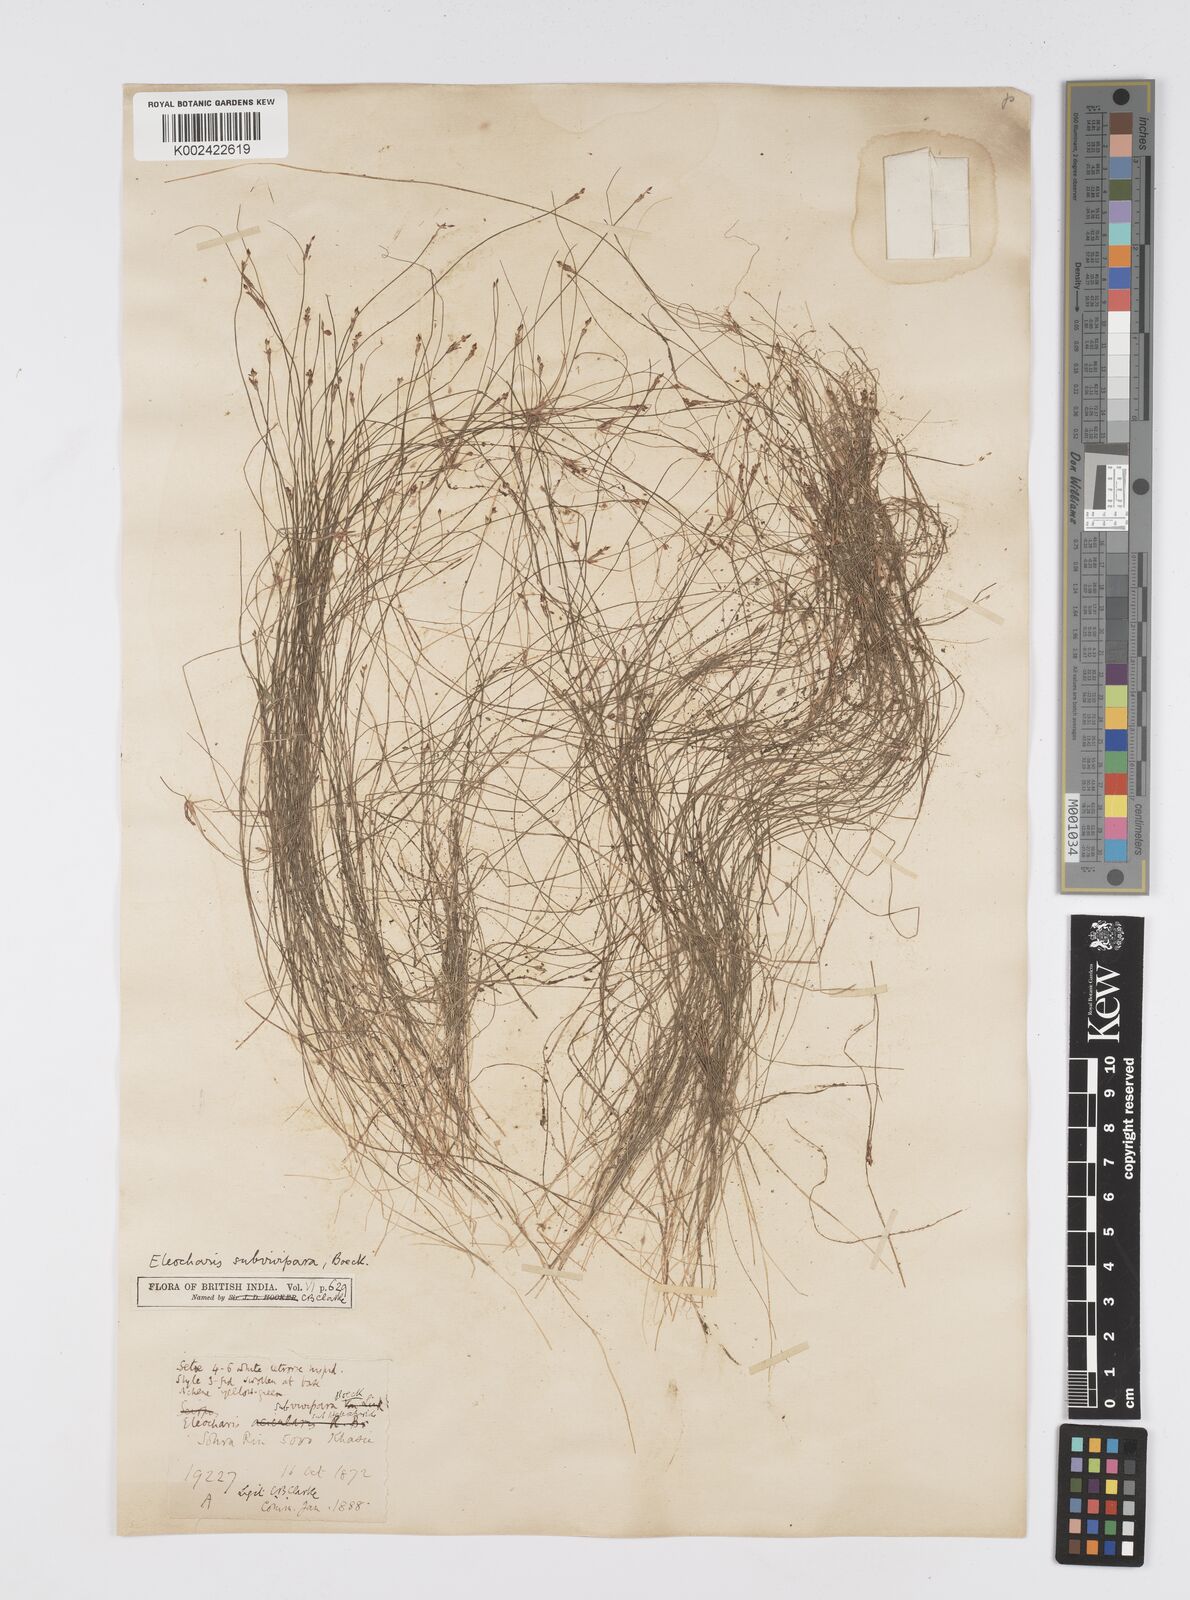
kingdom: Plantae
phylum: Tracheophyta
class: Liliopsida
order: Poales
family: Cyperaceae
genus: Eleocharis
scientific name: Eleocharis caespitosissima
